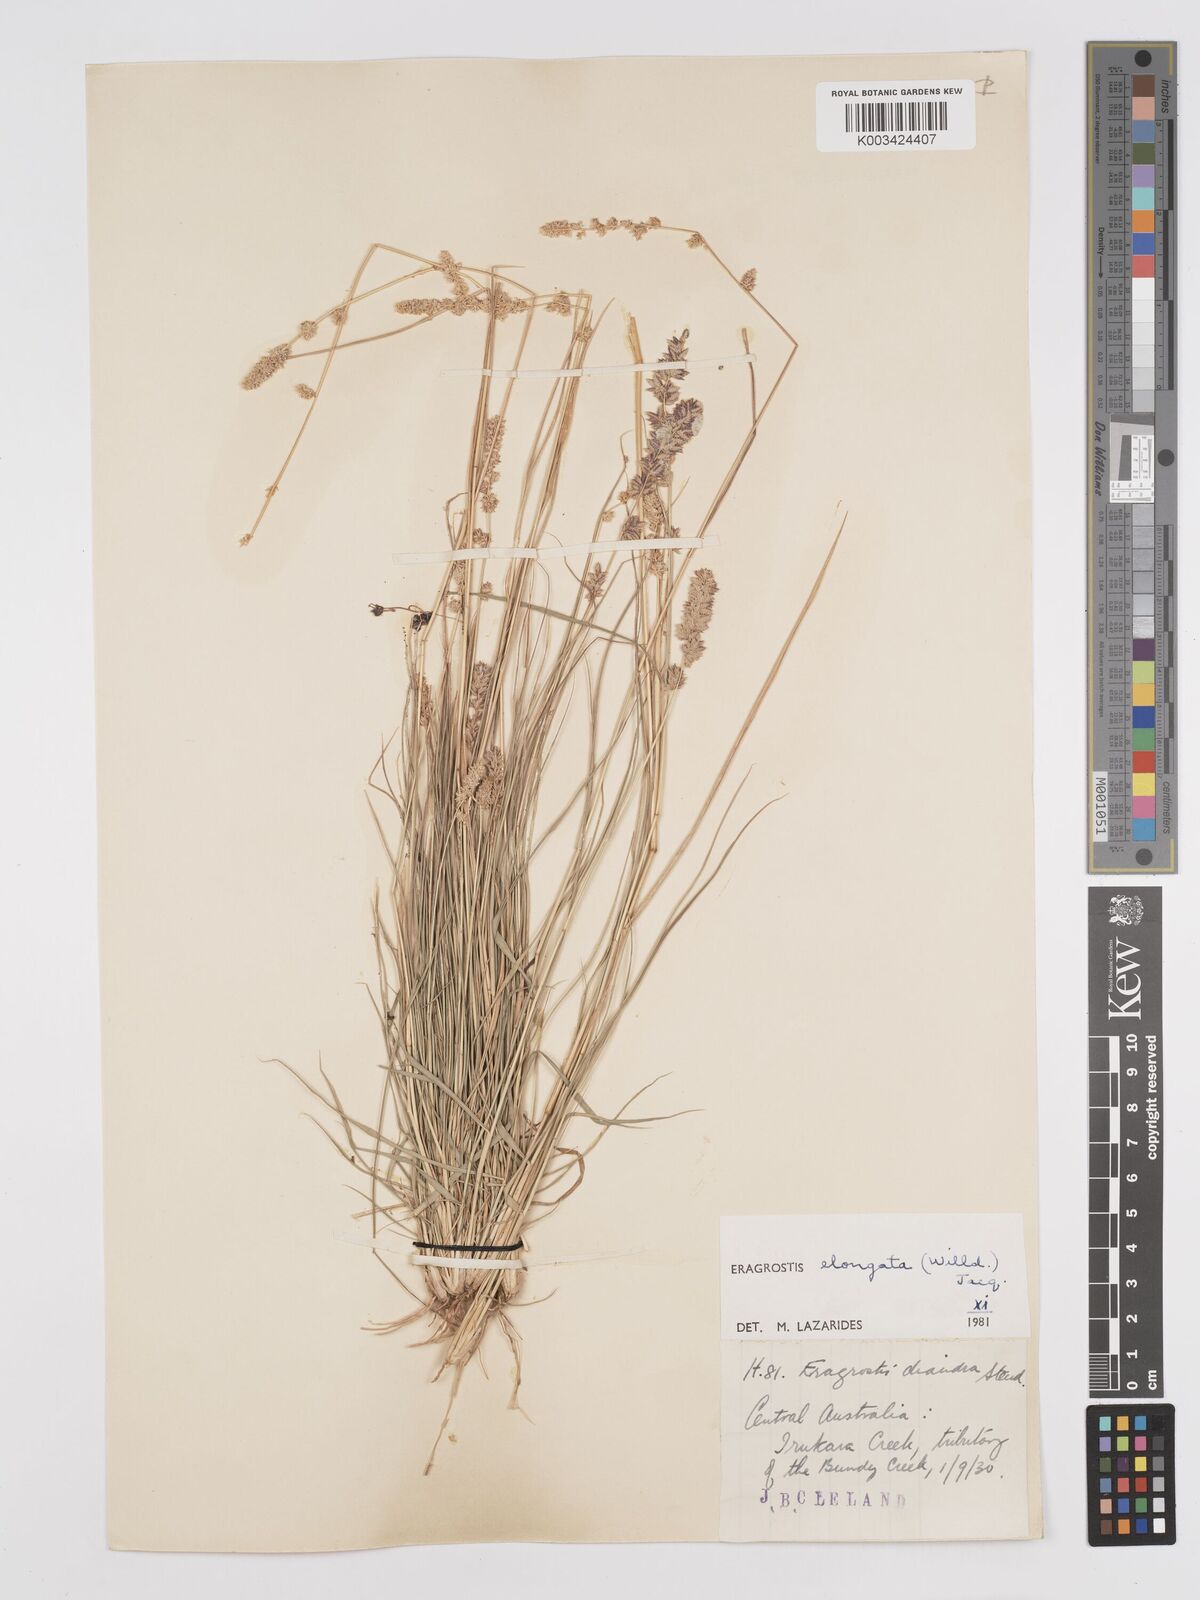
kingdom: Plantae
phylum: Tracheophyta
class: Liliopsida
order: Poales
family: Poaceae
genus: Eragrostis
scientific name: Eragrostis elongata
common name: Long lovegrass
